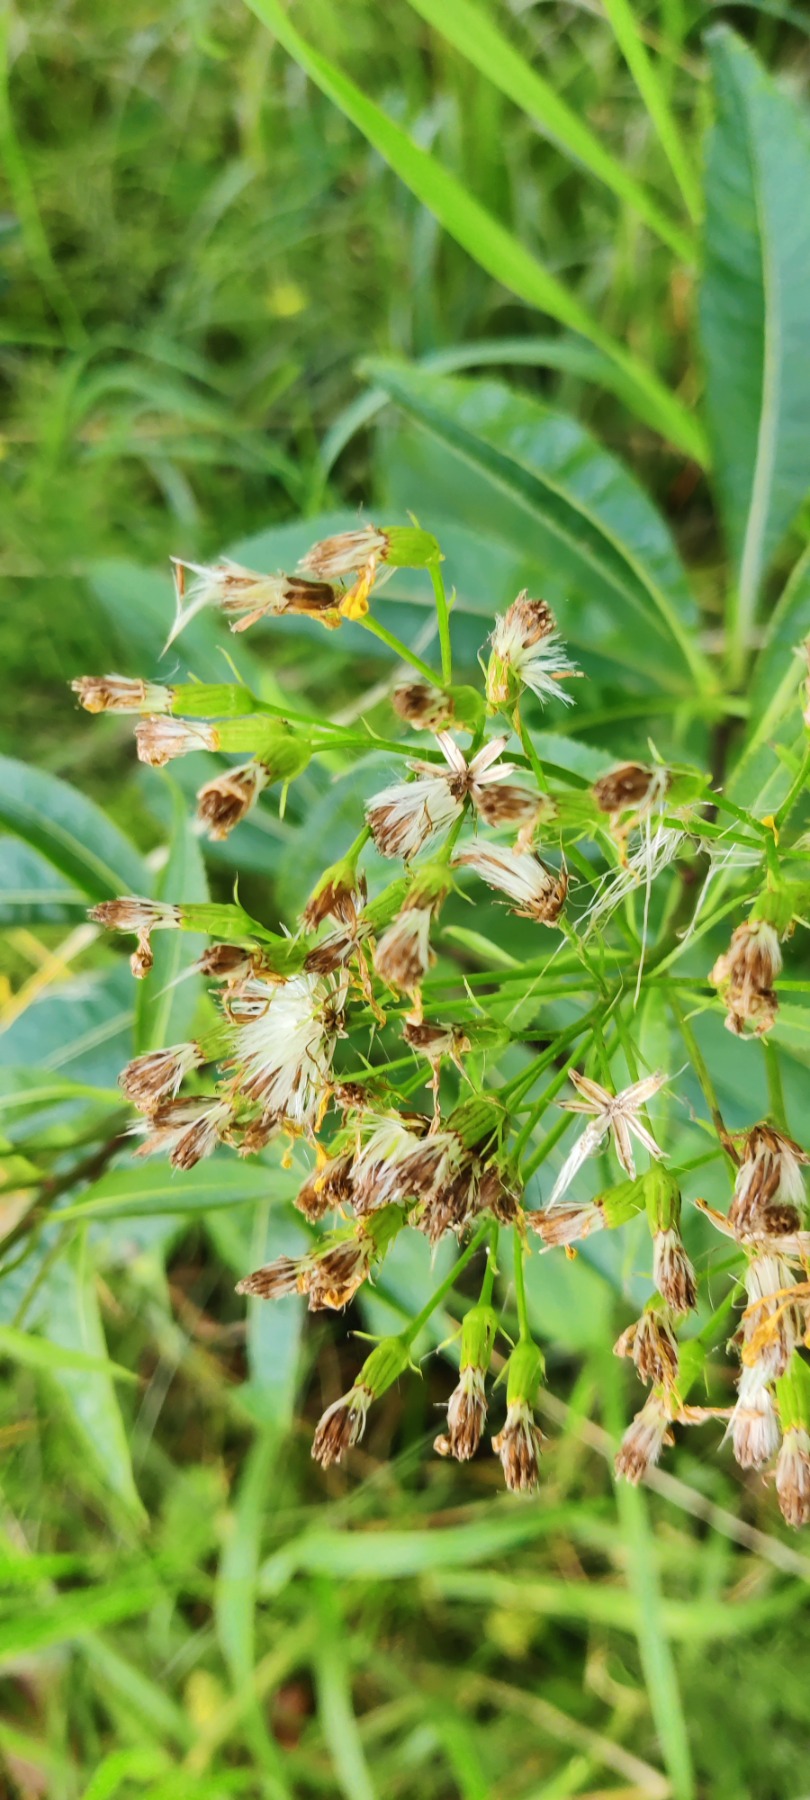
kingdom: Plantae
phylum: Tracheophyta
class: Magnoliopsida
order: Asterales
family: Asteraceae
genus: Senecio
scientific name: Senecio ovatus
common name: Pilebladet brandbæger
